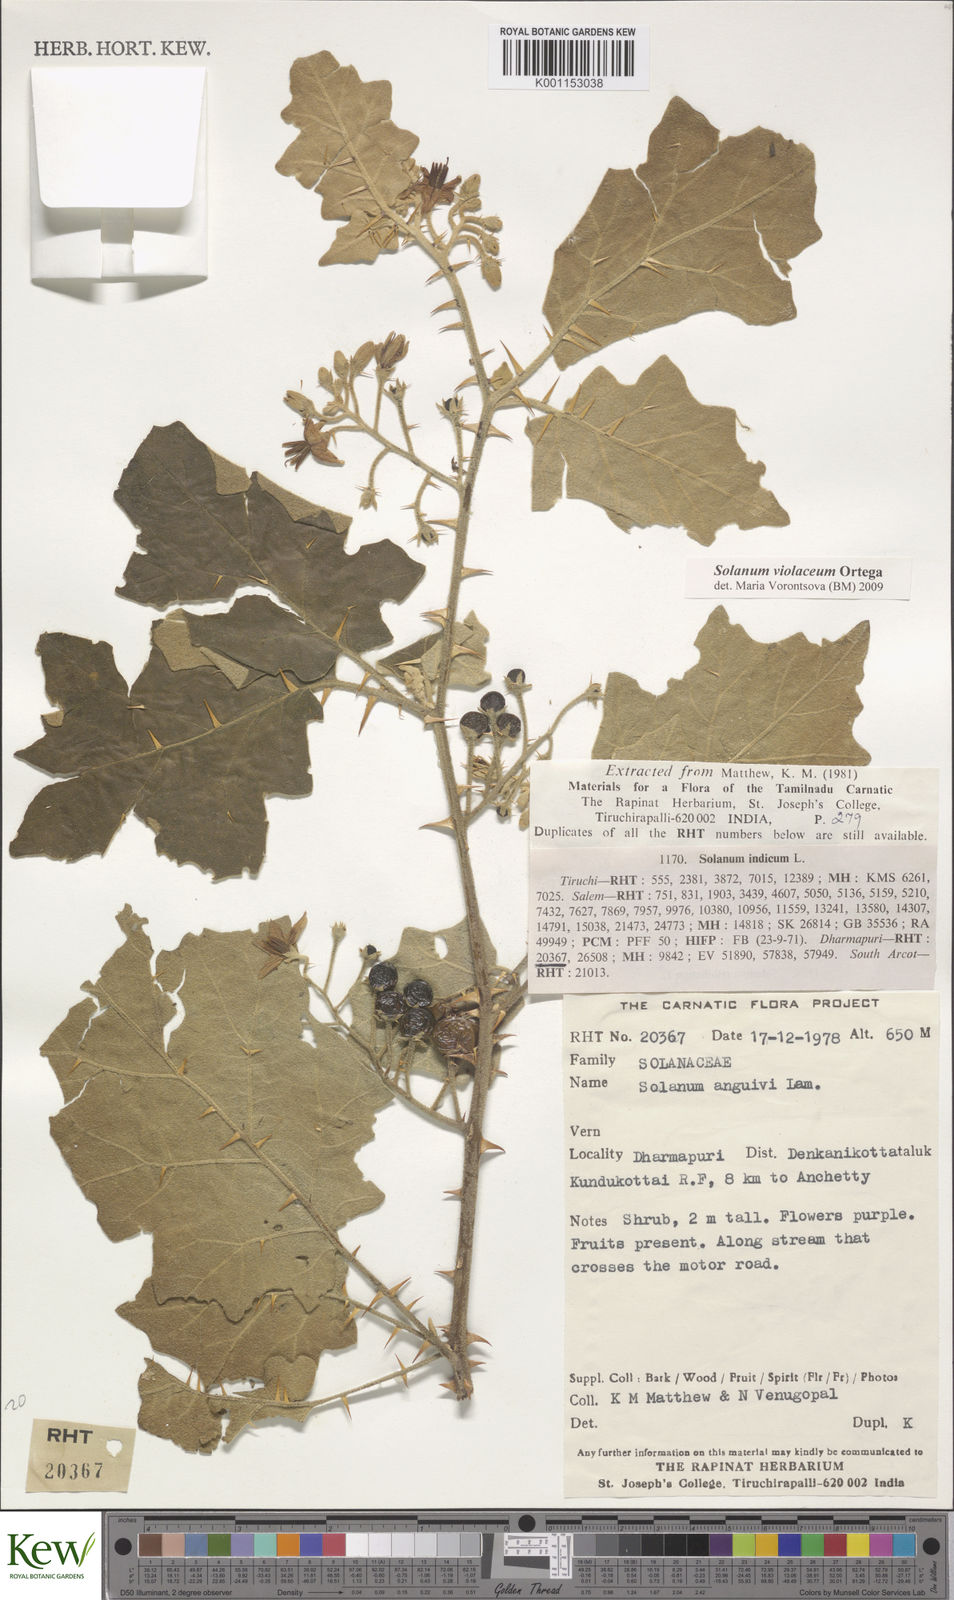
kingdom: Plantae
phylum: Tracheophyta
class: Magnoliopsida
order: Solanales
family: Solanaceae
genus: Solanum
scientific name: Solanum violaceum
